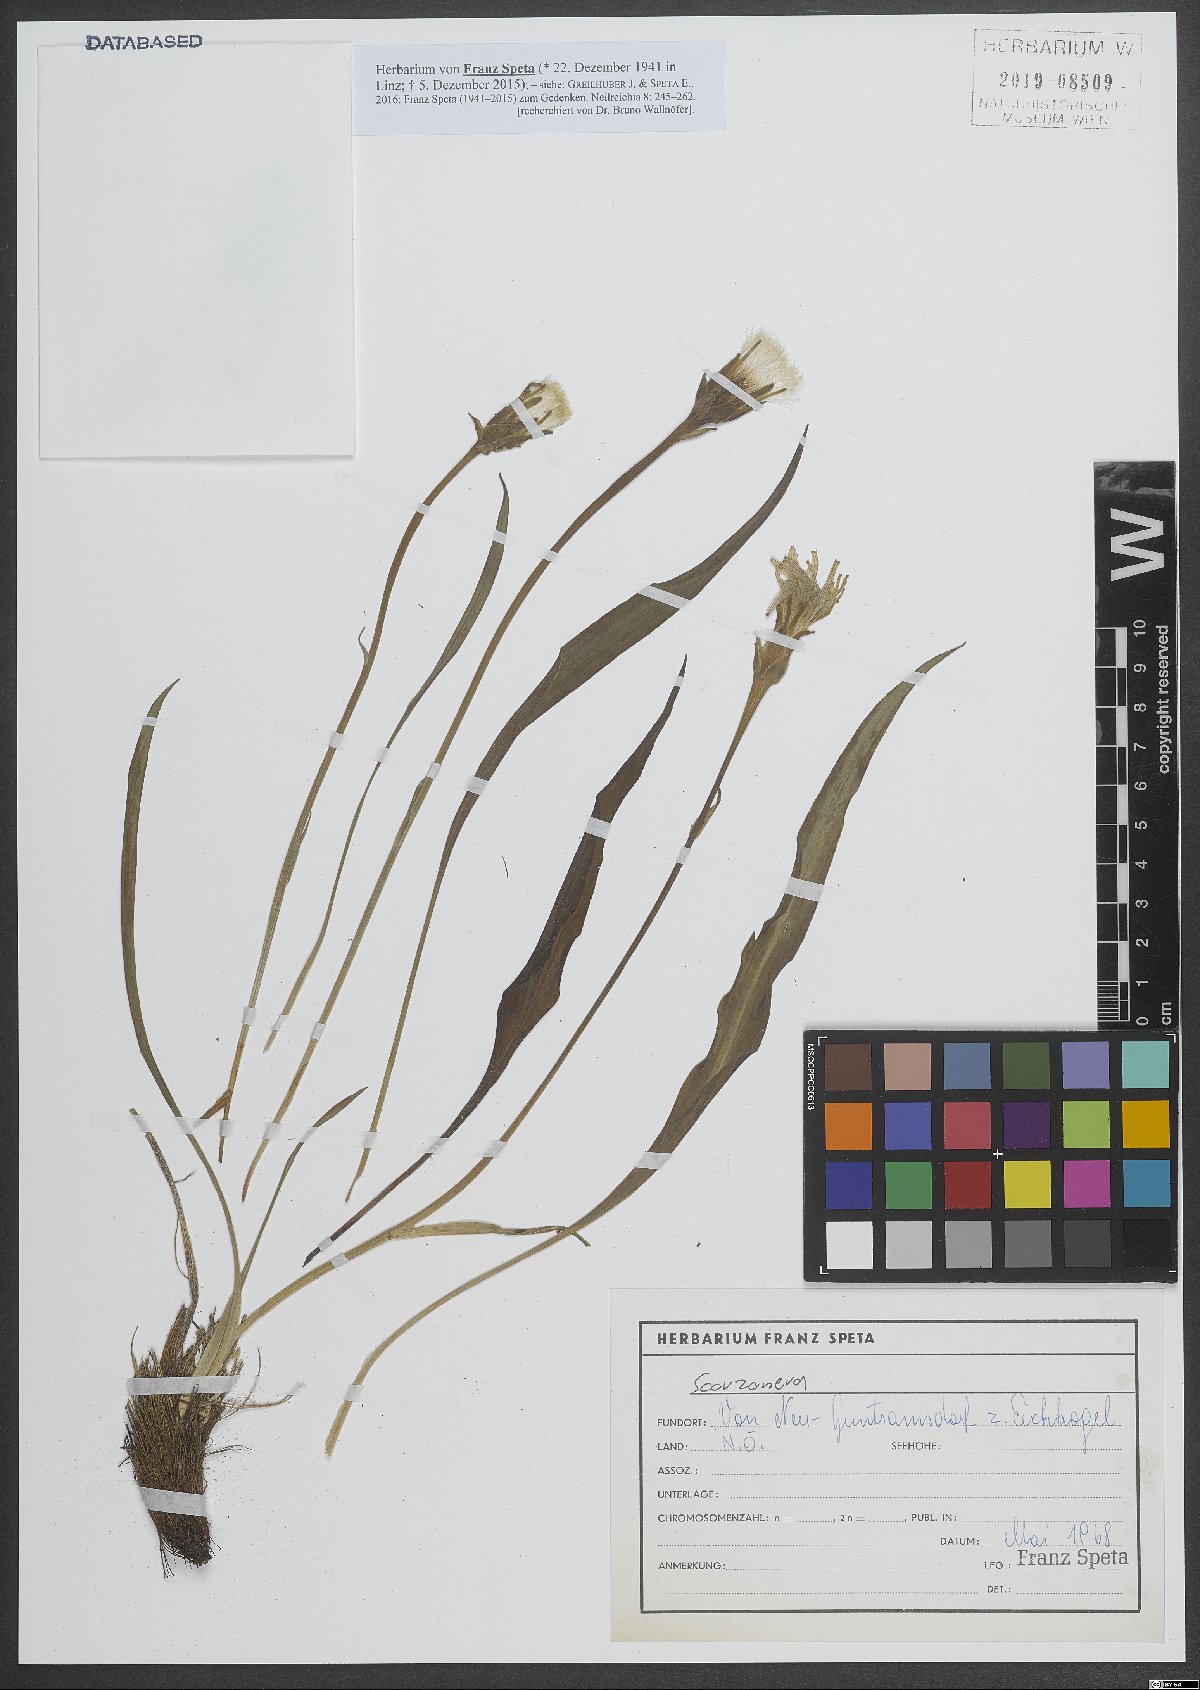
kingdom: Plantae
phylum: Tracheophyta
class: Magnoliopsida
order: Asterales
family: Asteraceae
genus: Scorzonera
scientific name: Scorzonera
